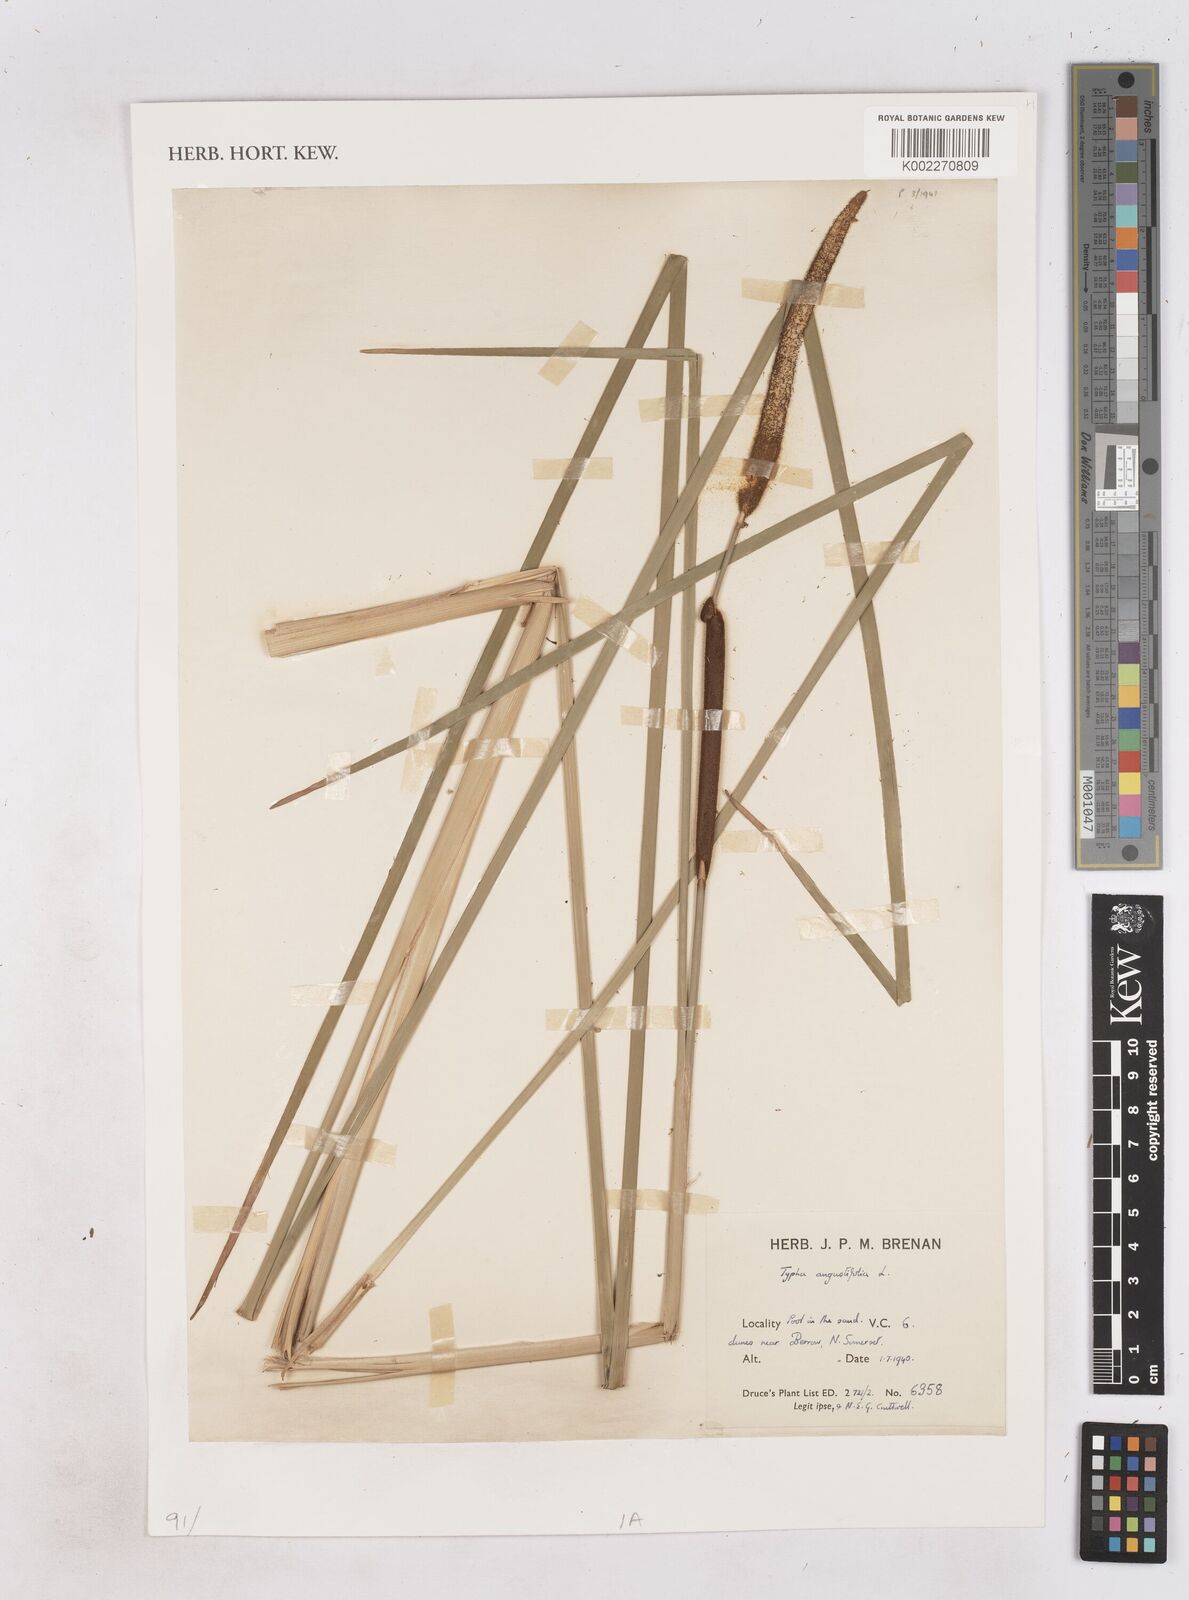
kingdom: Plantae
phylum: Tracheophyta
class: Liliopsida
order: Poales
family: Typhaceae
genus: Typha
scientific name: Typha angustifolia
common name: Lesser bulrush
